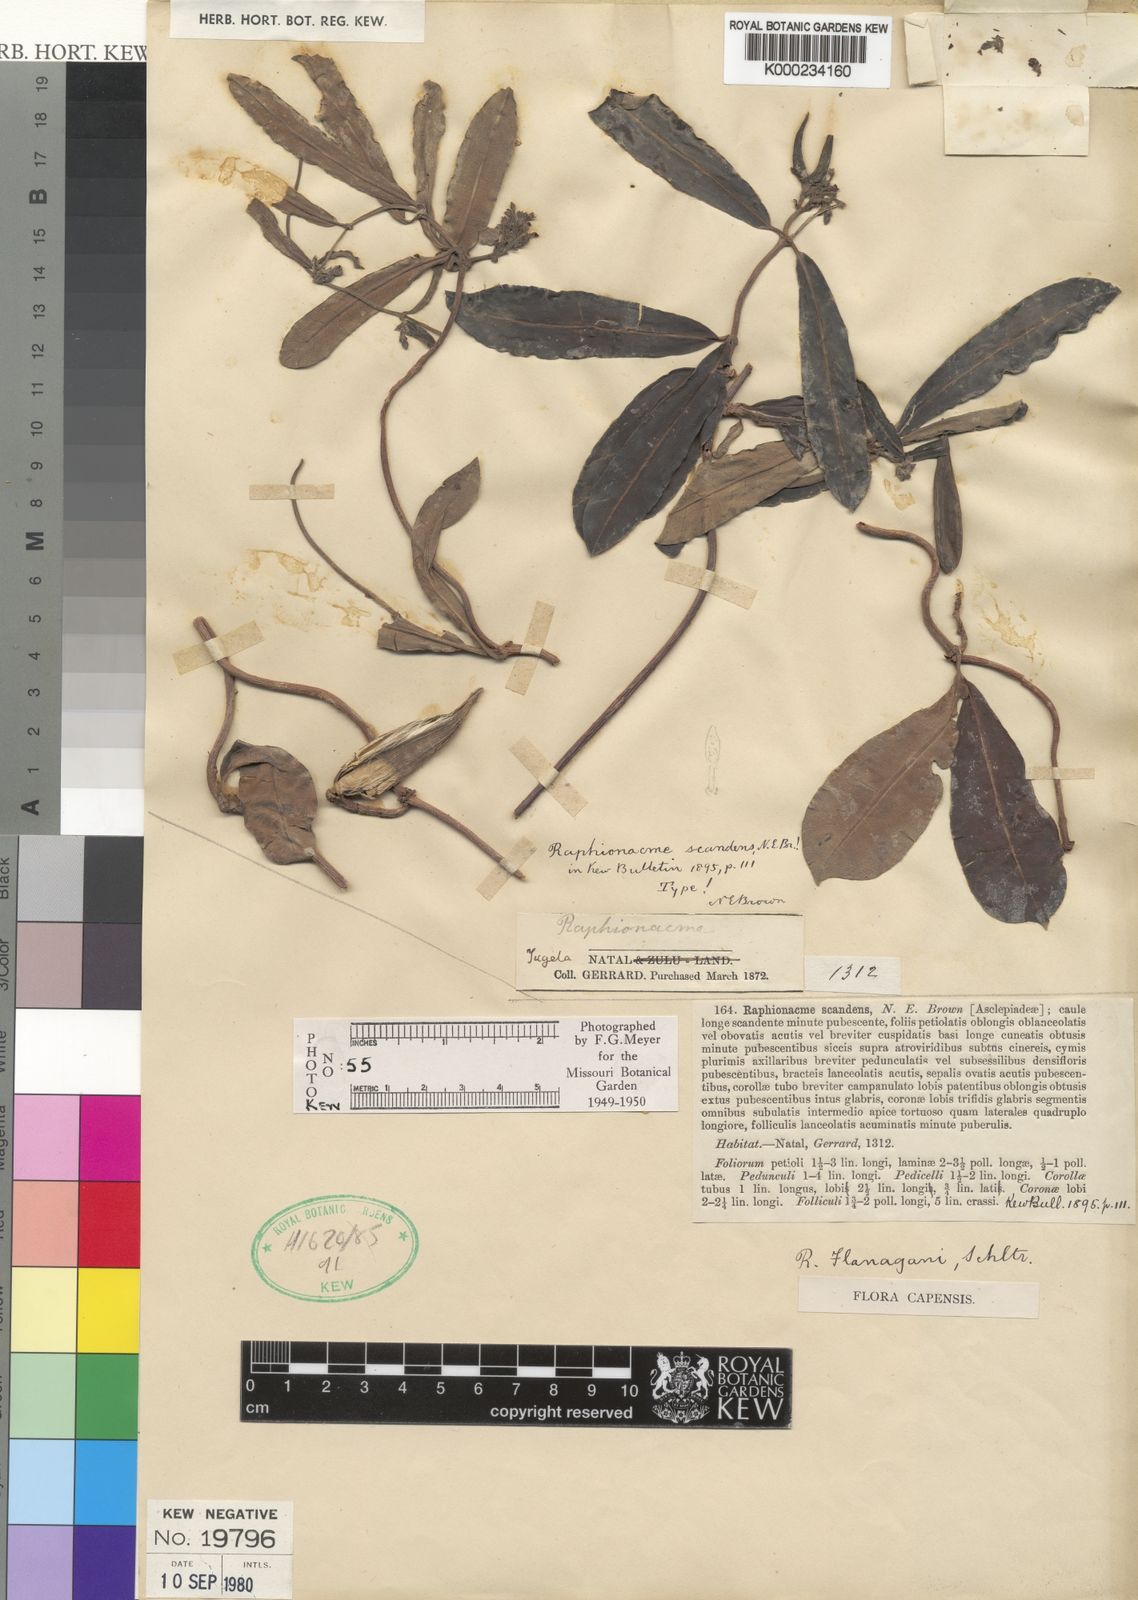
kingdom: Plantae
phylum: Tracheophyta
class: Magnoliopsida
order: Gentianales
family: Apocynaceae
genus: Raphionacme
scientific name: Raphionacme flanaganii
